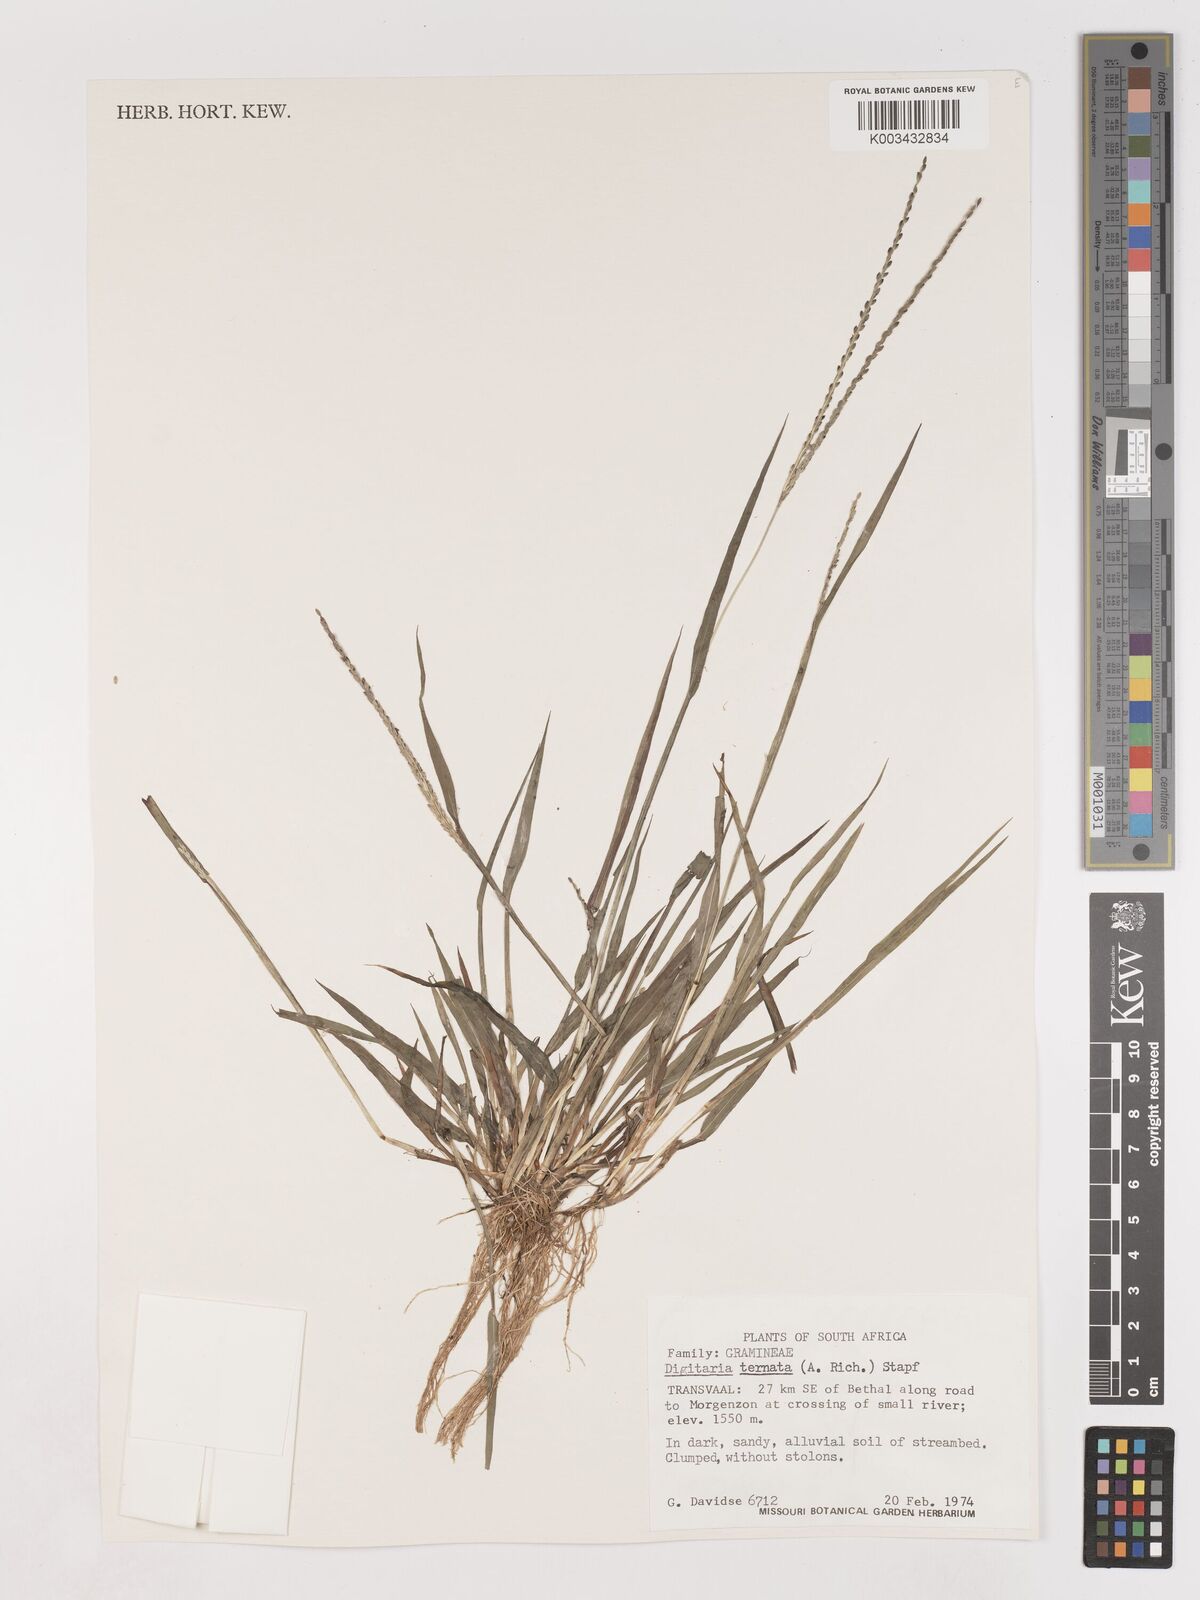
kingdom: Plantae
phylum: Tracheophyta
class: Liliopsida
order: Poales
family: Poaceae
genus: Digitaria
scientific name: Digitaria ternata
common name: Blackseed crabgrass
